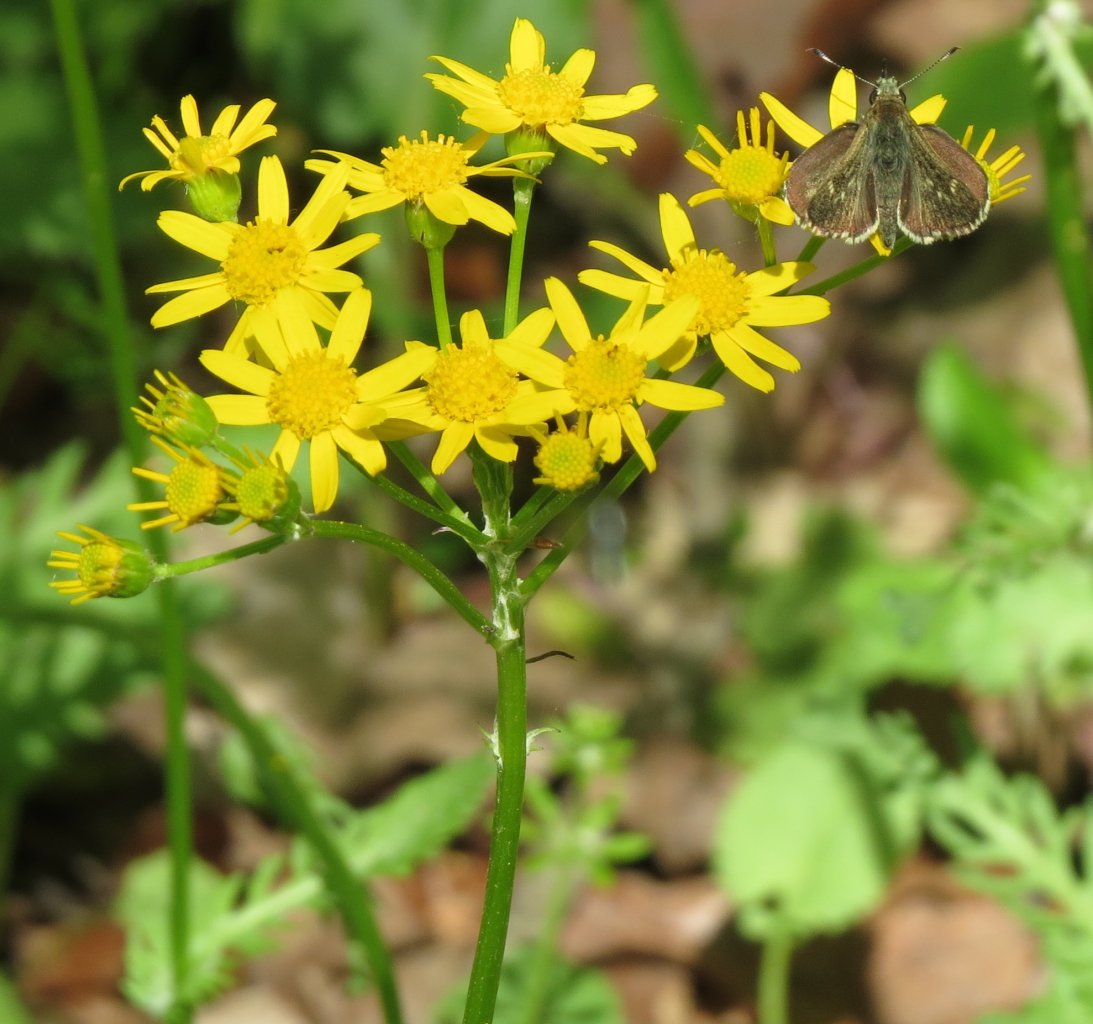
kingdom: Animalia
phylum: Arthropoda
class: Insecta
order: Lepidoptera
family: Hesperiidae
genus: Mastor
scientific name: Mastor celia
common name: Bell's Roadside-Skipper
